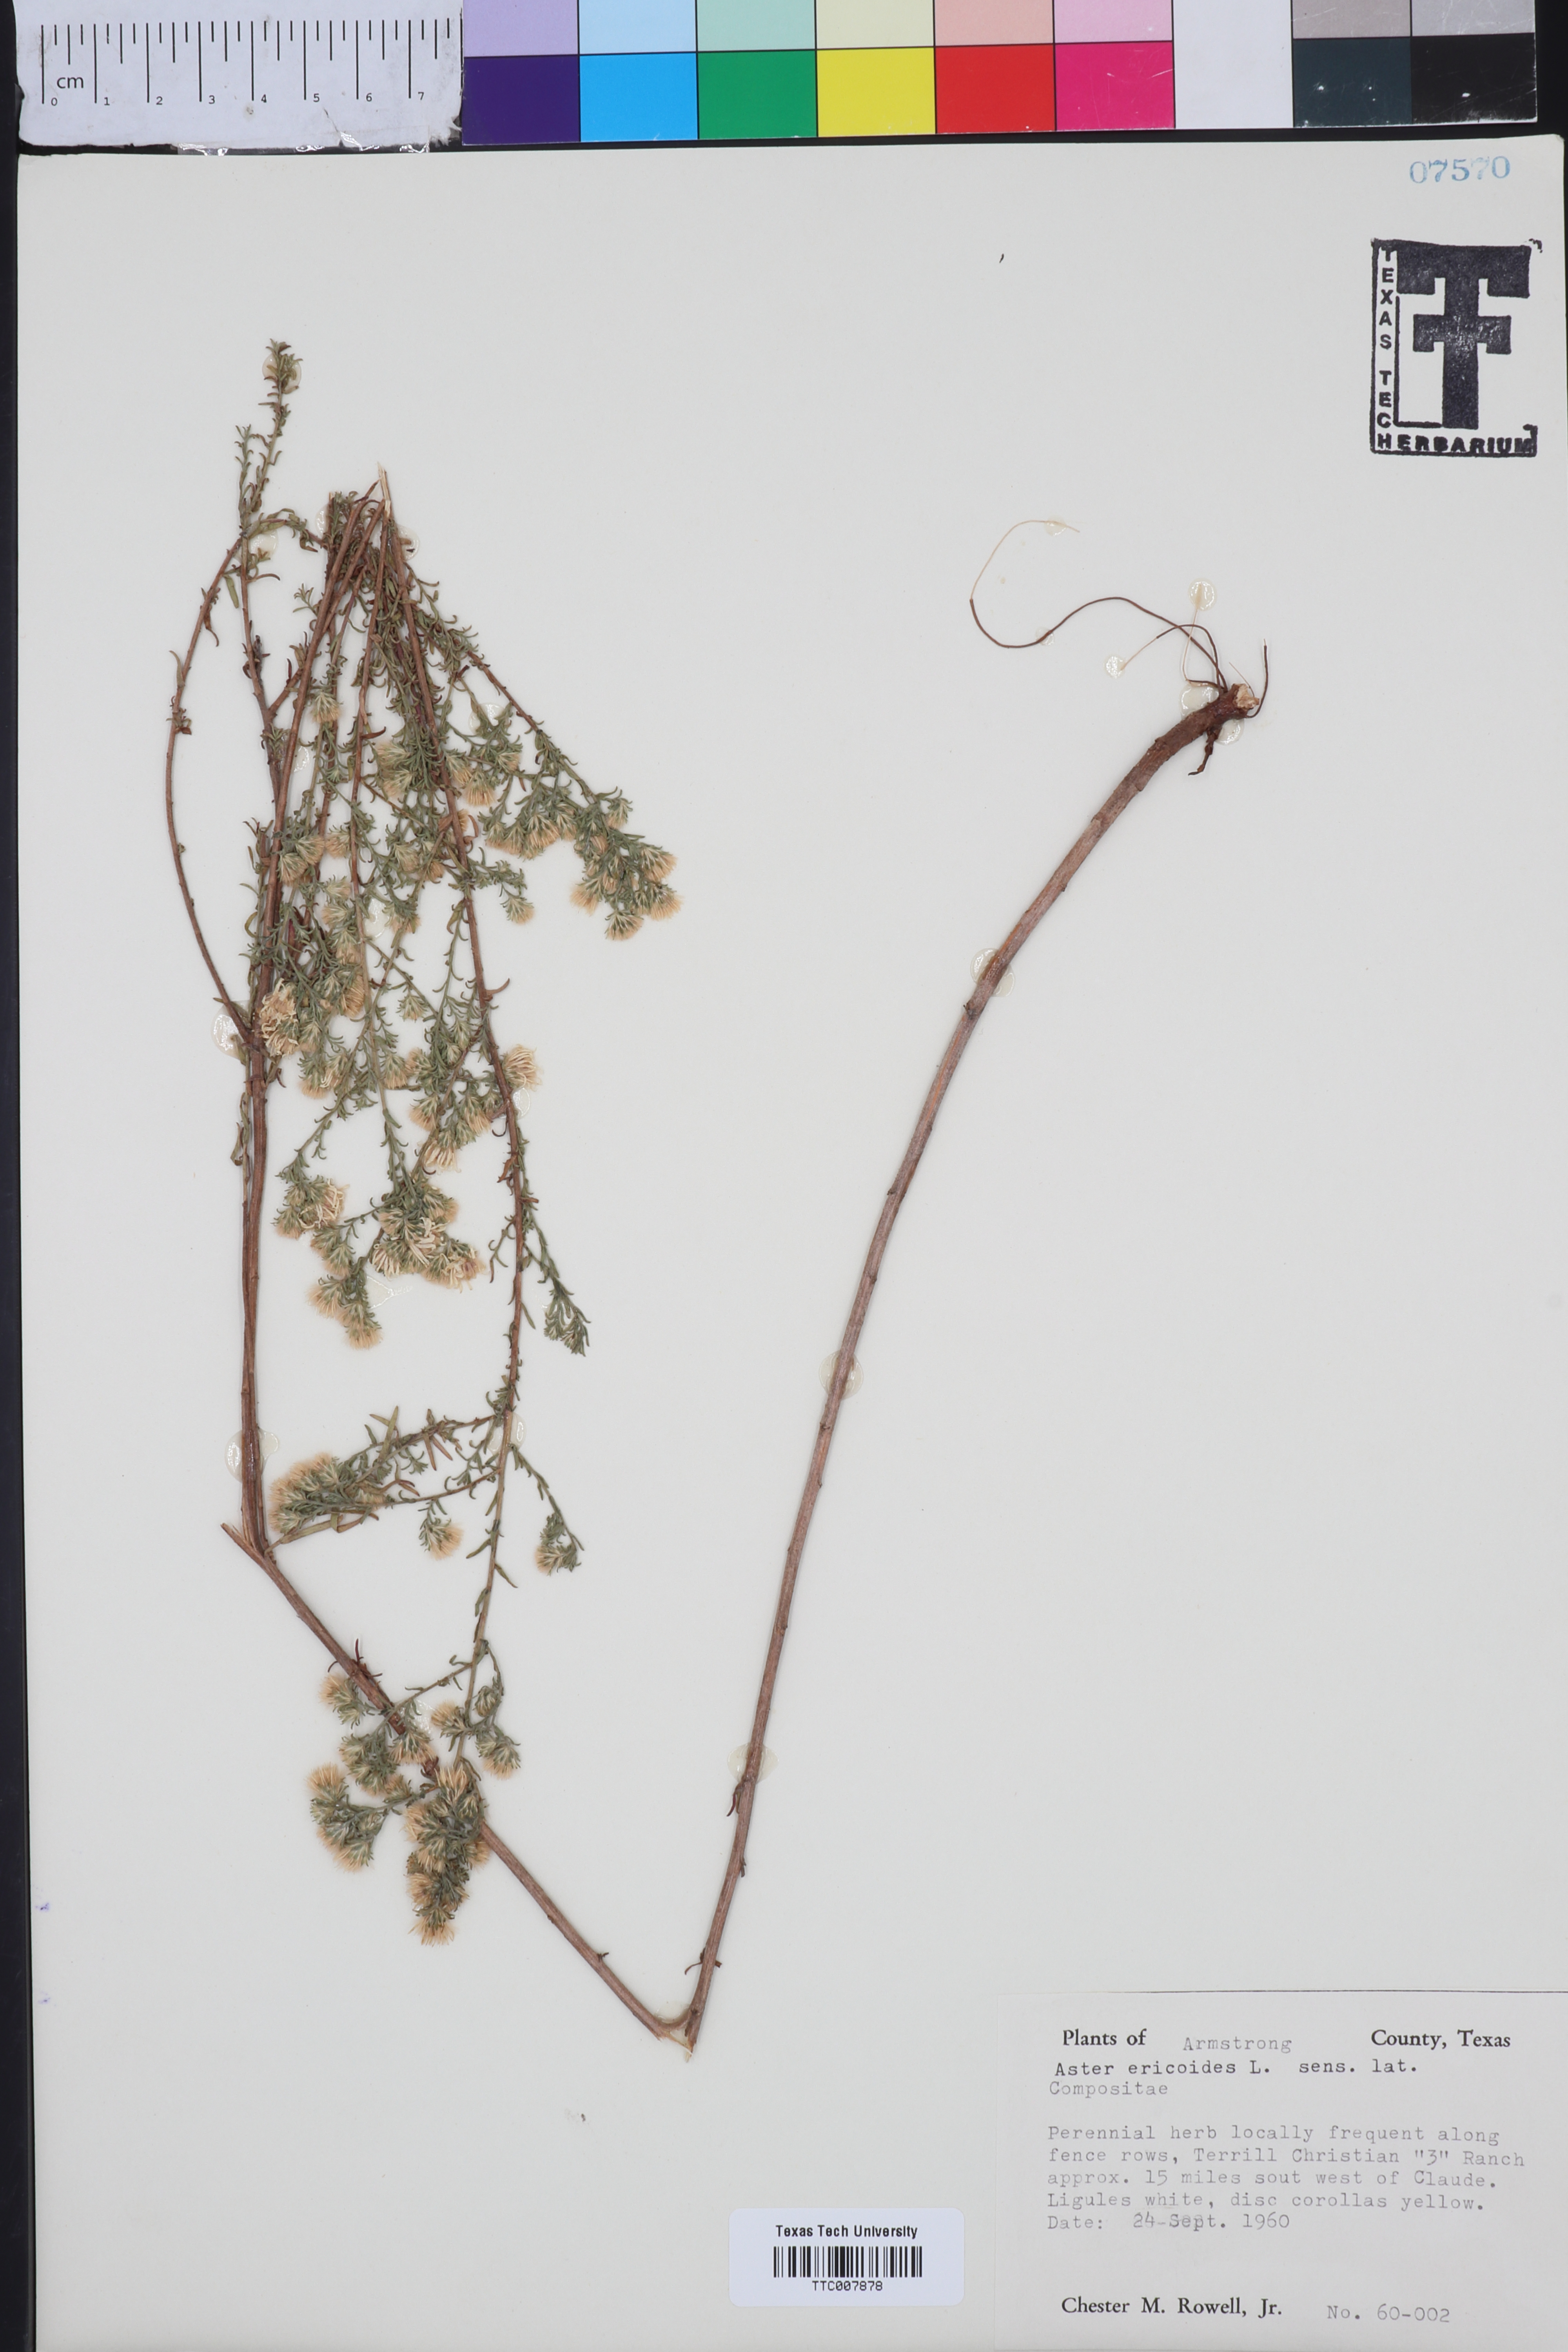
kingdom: Plantae
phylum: Tracheophyta
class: Magnoliopsida
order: Asterales
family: Asteraceae
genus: Symphyotrichum
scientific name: Symphyotrichum ericoides
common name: Heath aster
